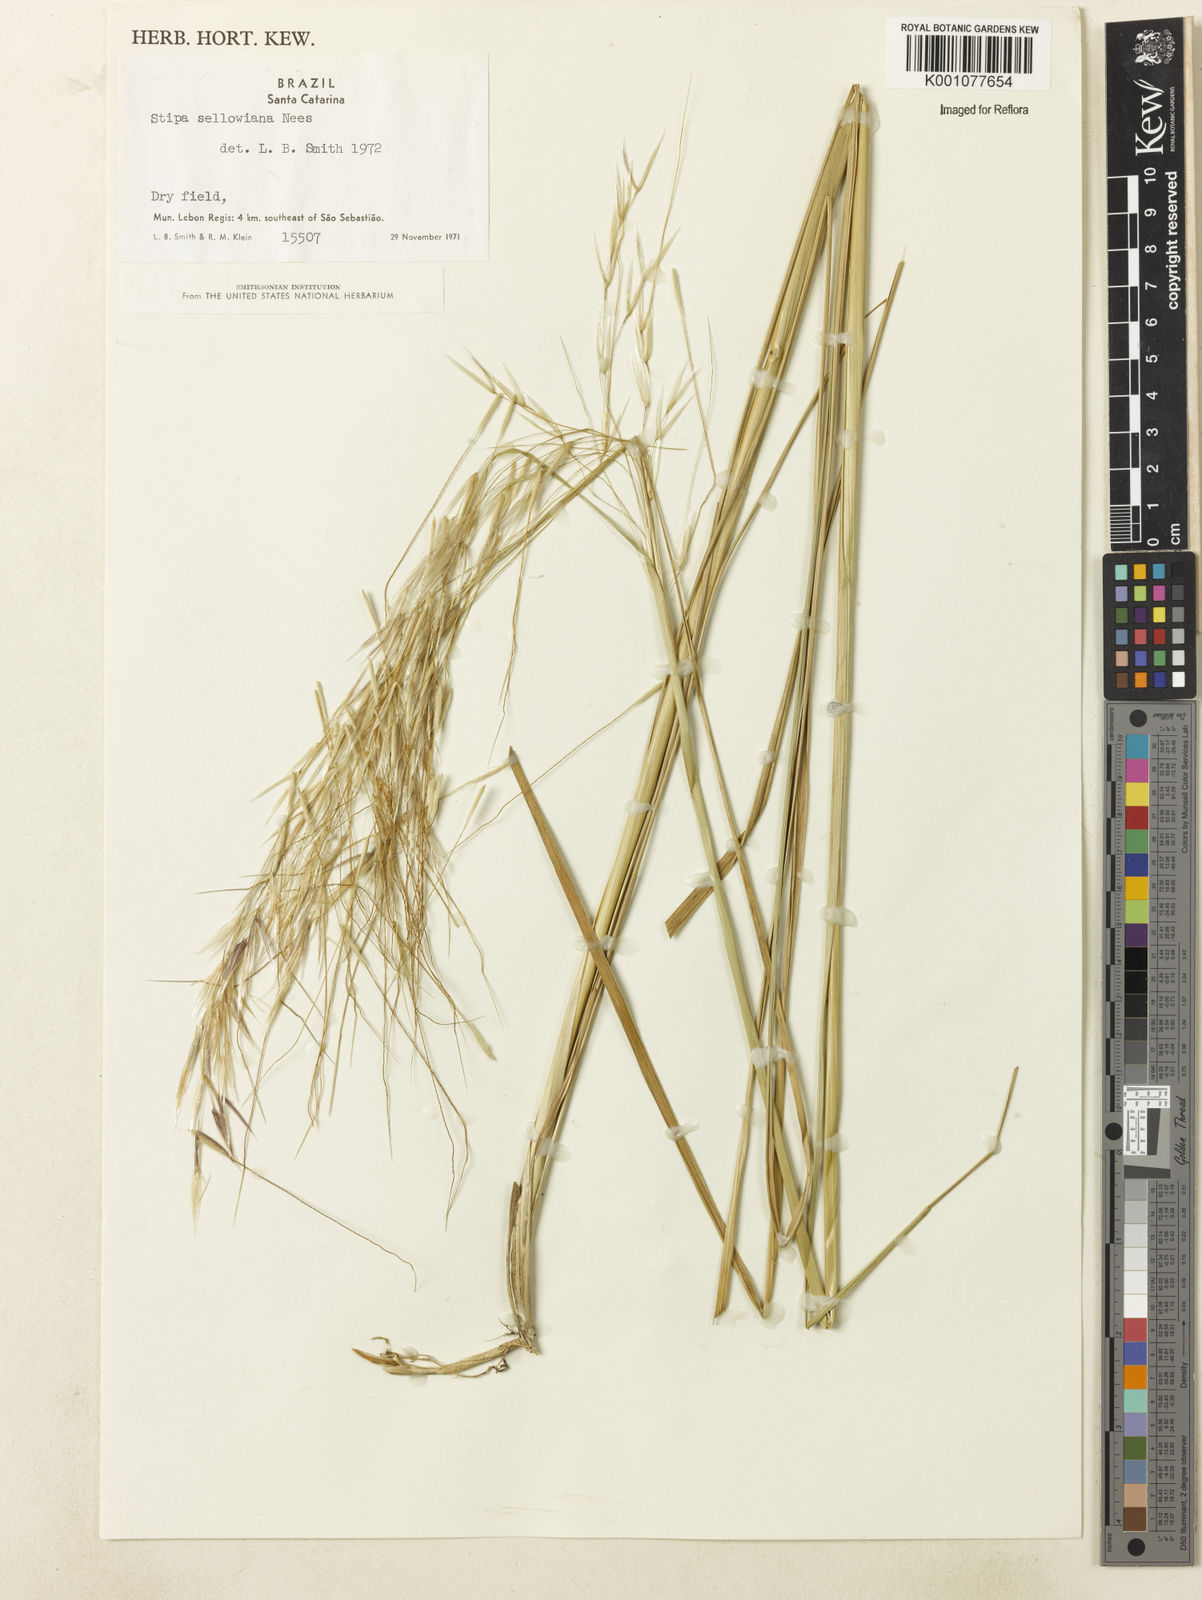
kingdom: Plantae
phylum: Tracheophyta
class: Liliopsida
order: Poales
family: Poaceae
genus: Nassella
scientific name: Nassella
